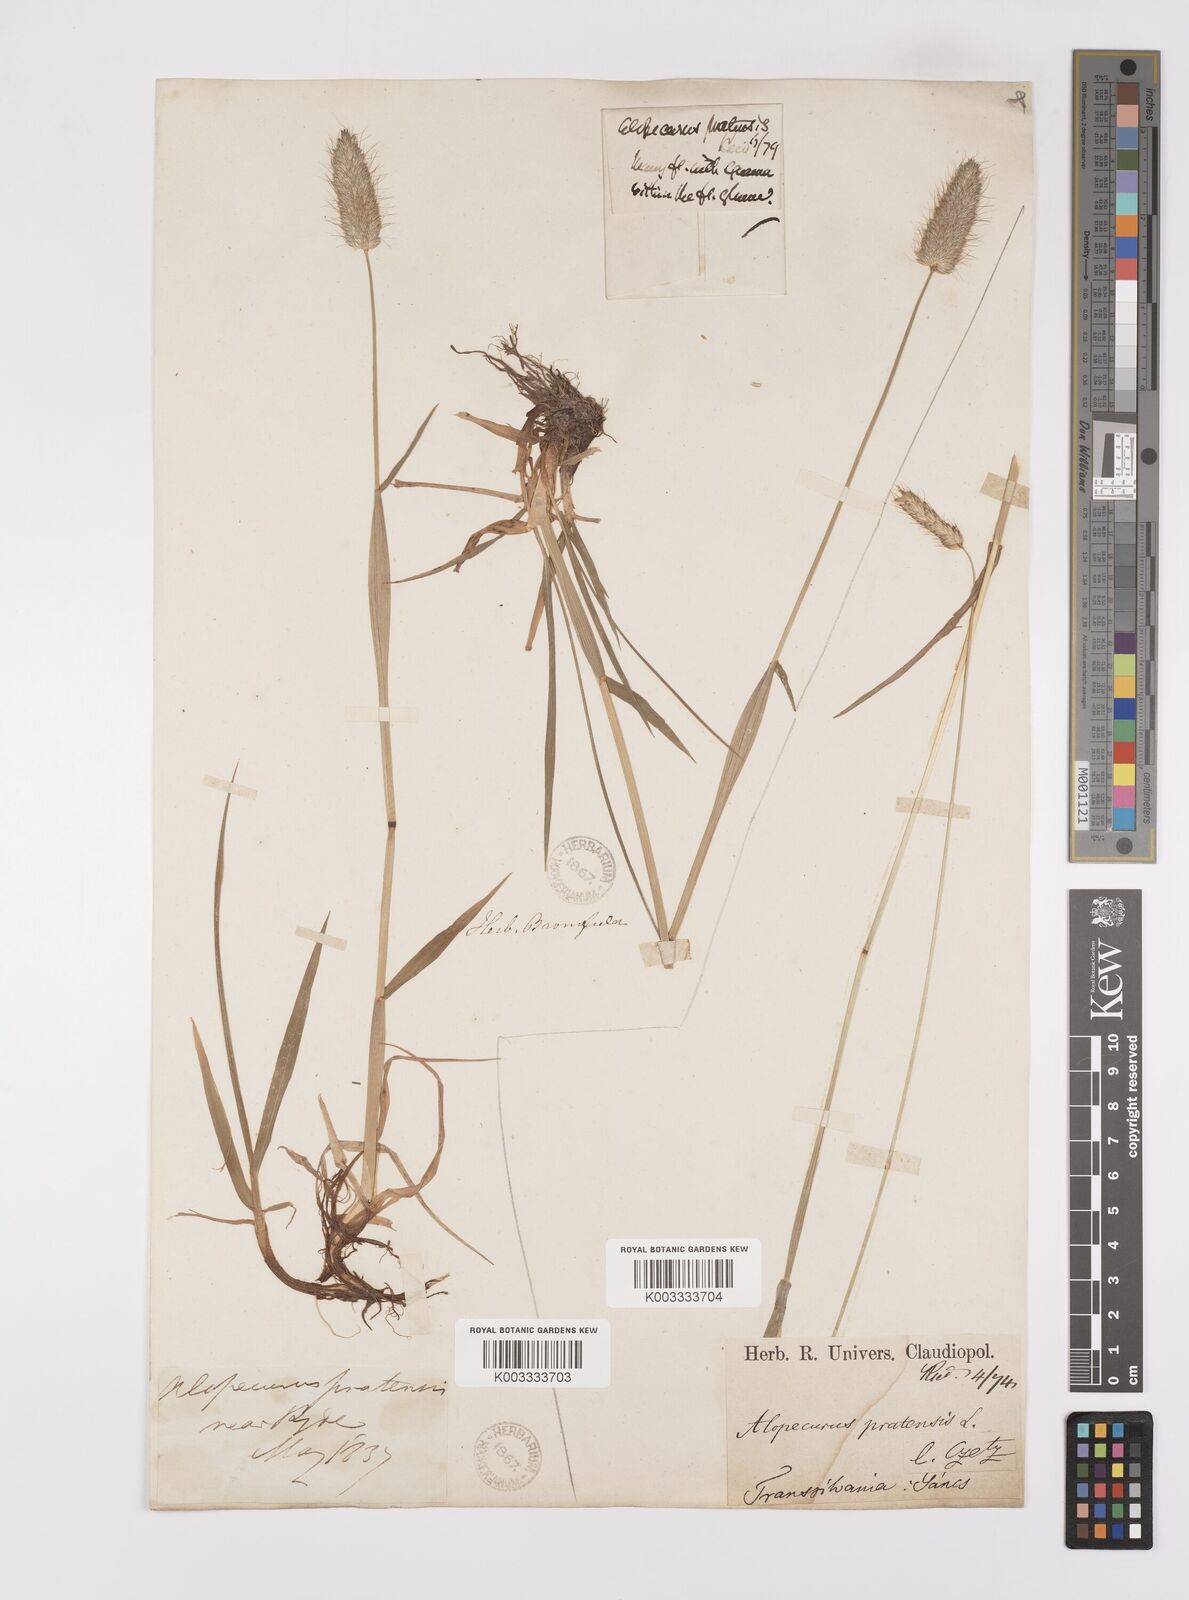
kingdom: Plantae
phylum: Tracheophyta
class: Liliopsida
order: Poales
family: Poaceae
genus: Alopecurus
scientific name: Alopecurus pratensis
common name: Meadow foxtail
